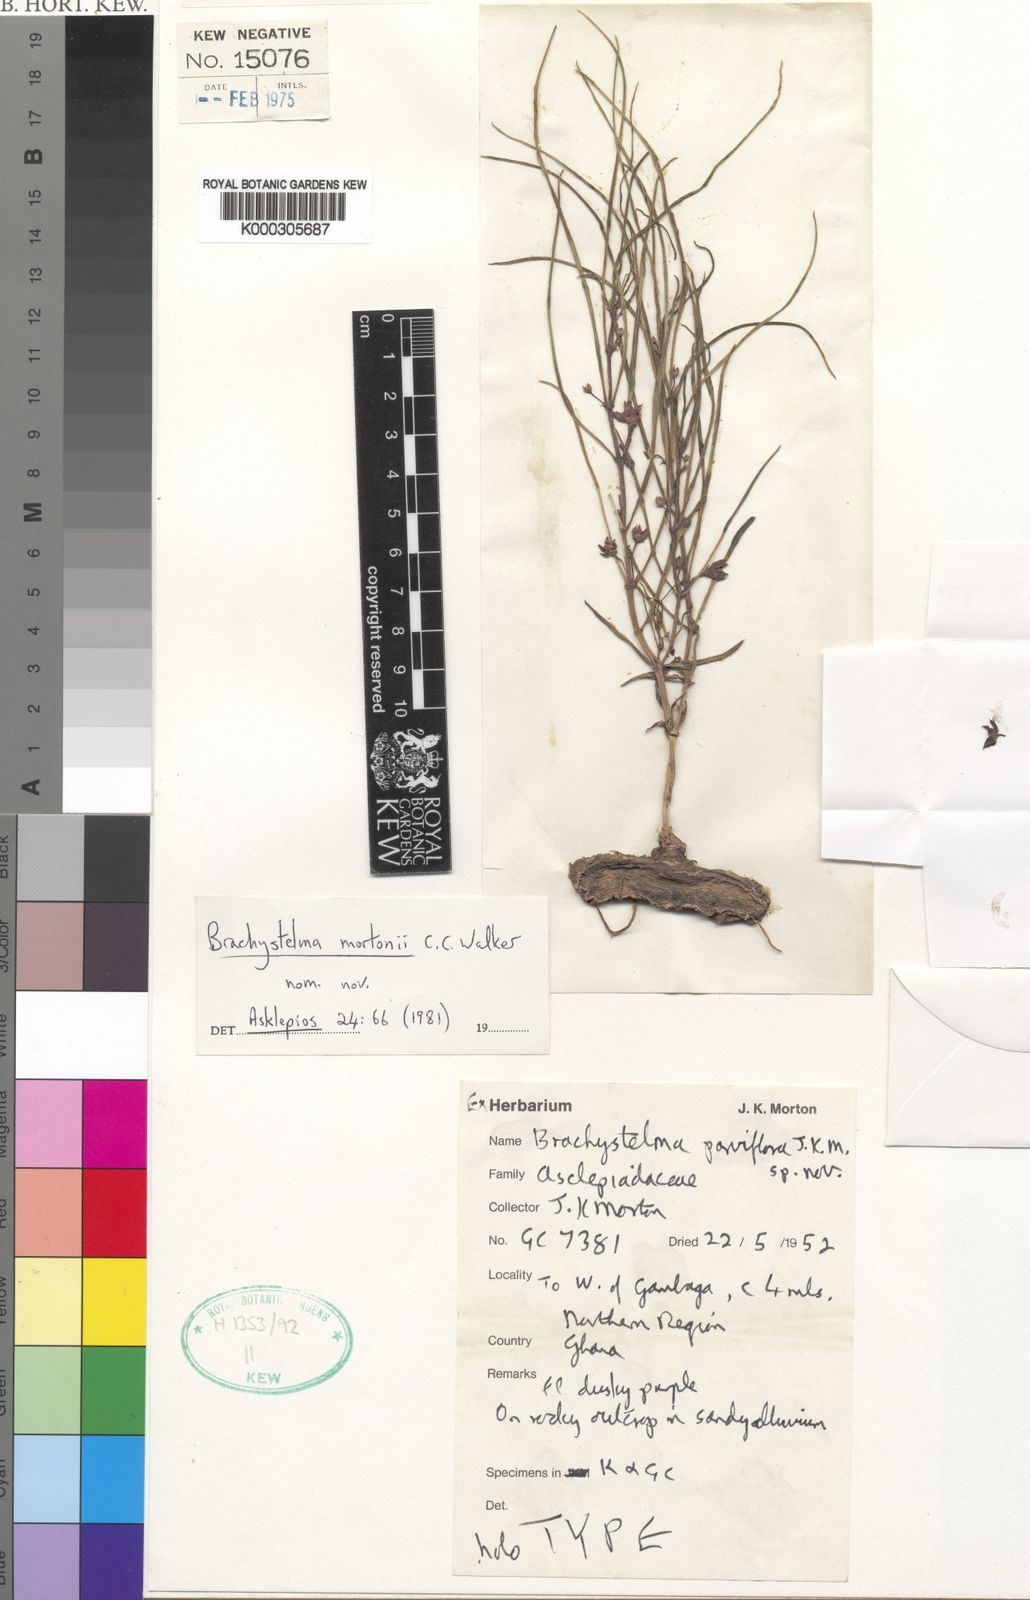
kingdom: Plantae
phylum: Tracheophyta
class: Magnoliopsida
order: Gentianales
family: Apocynaceae
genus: Ceropegia
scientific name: Ceropegia plocamoides
